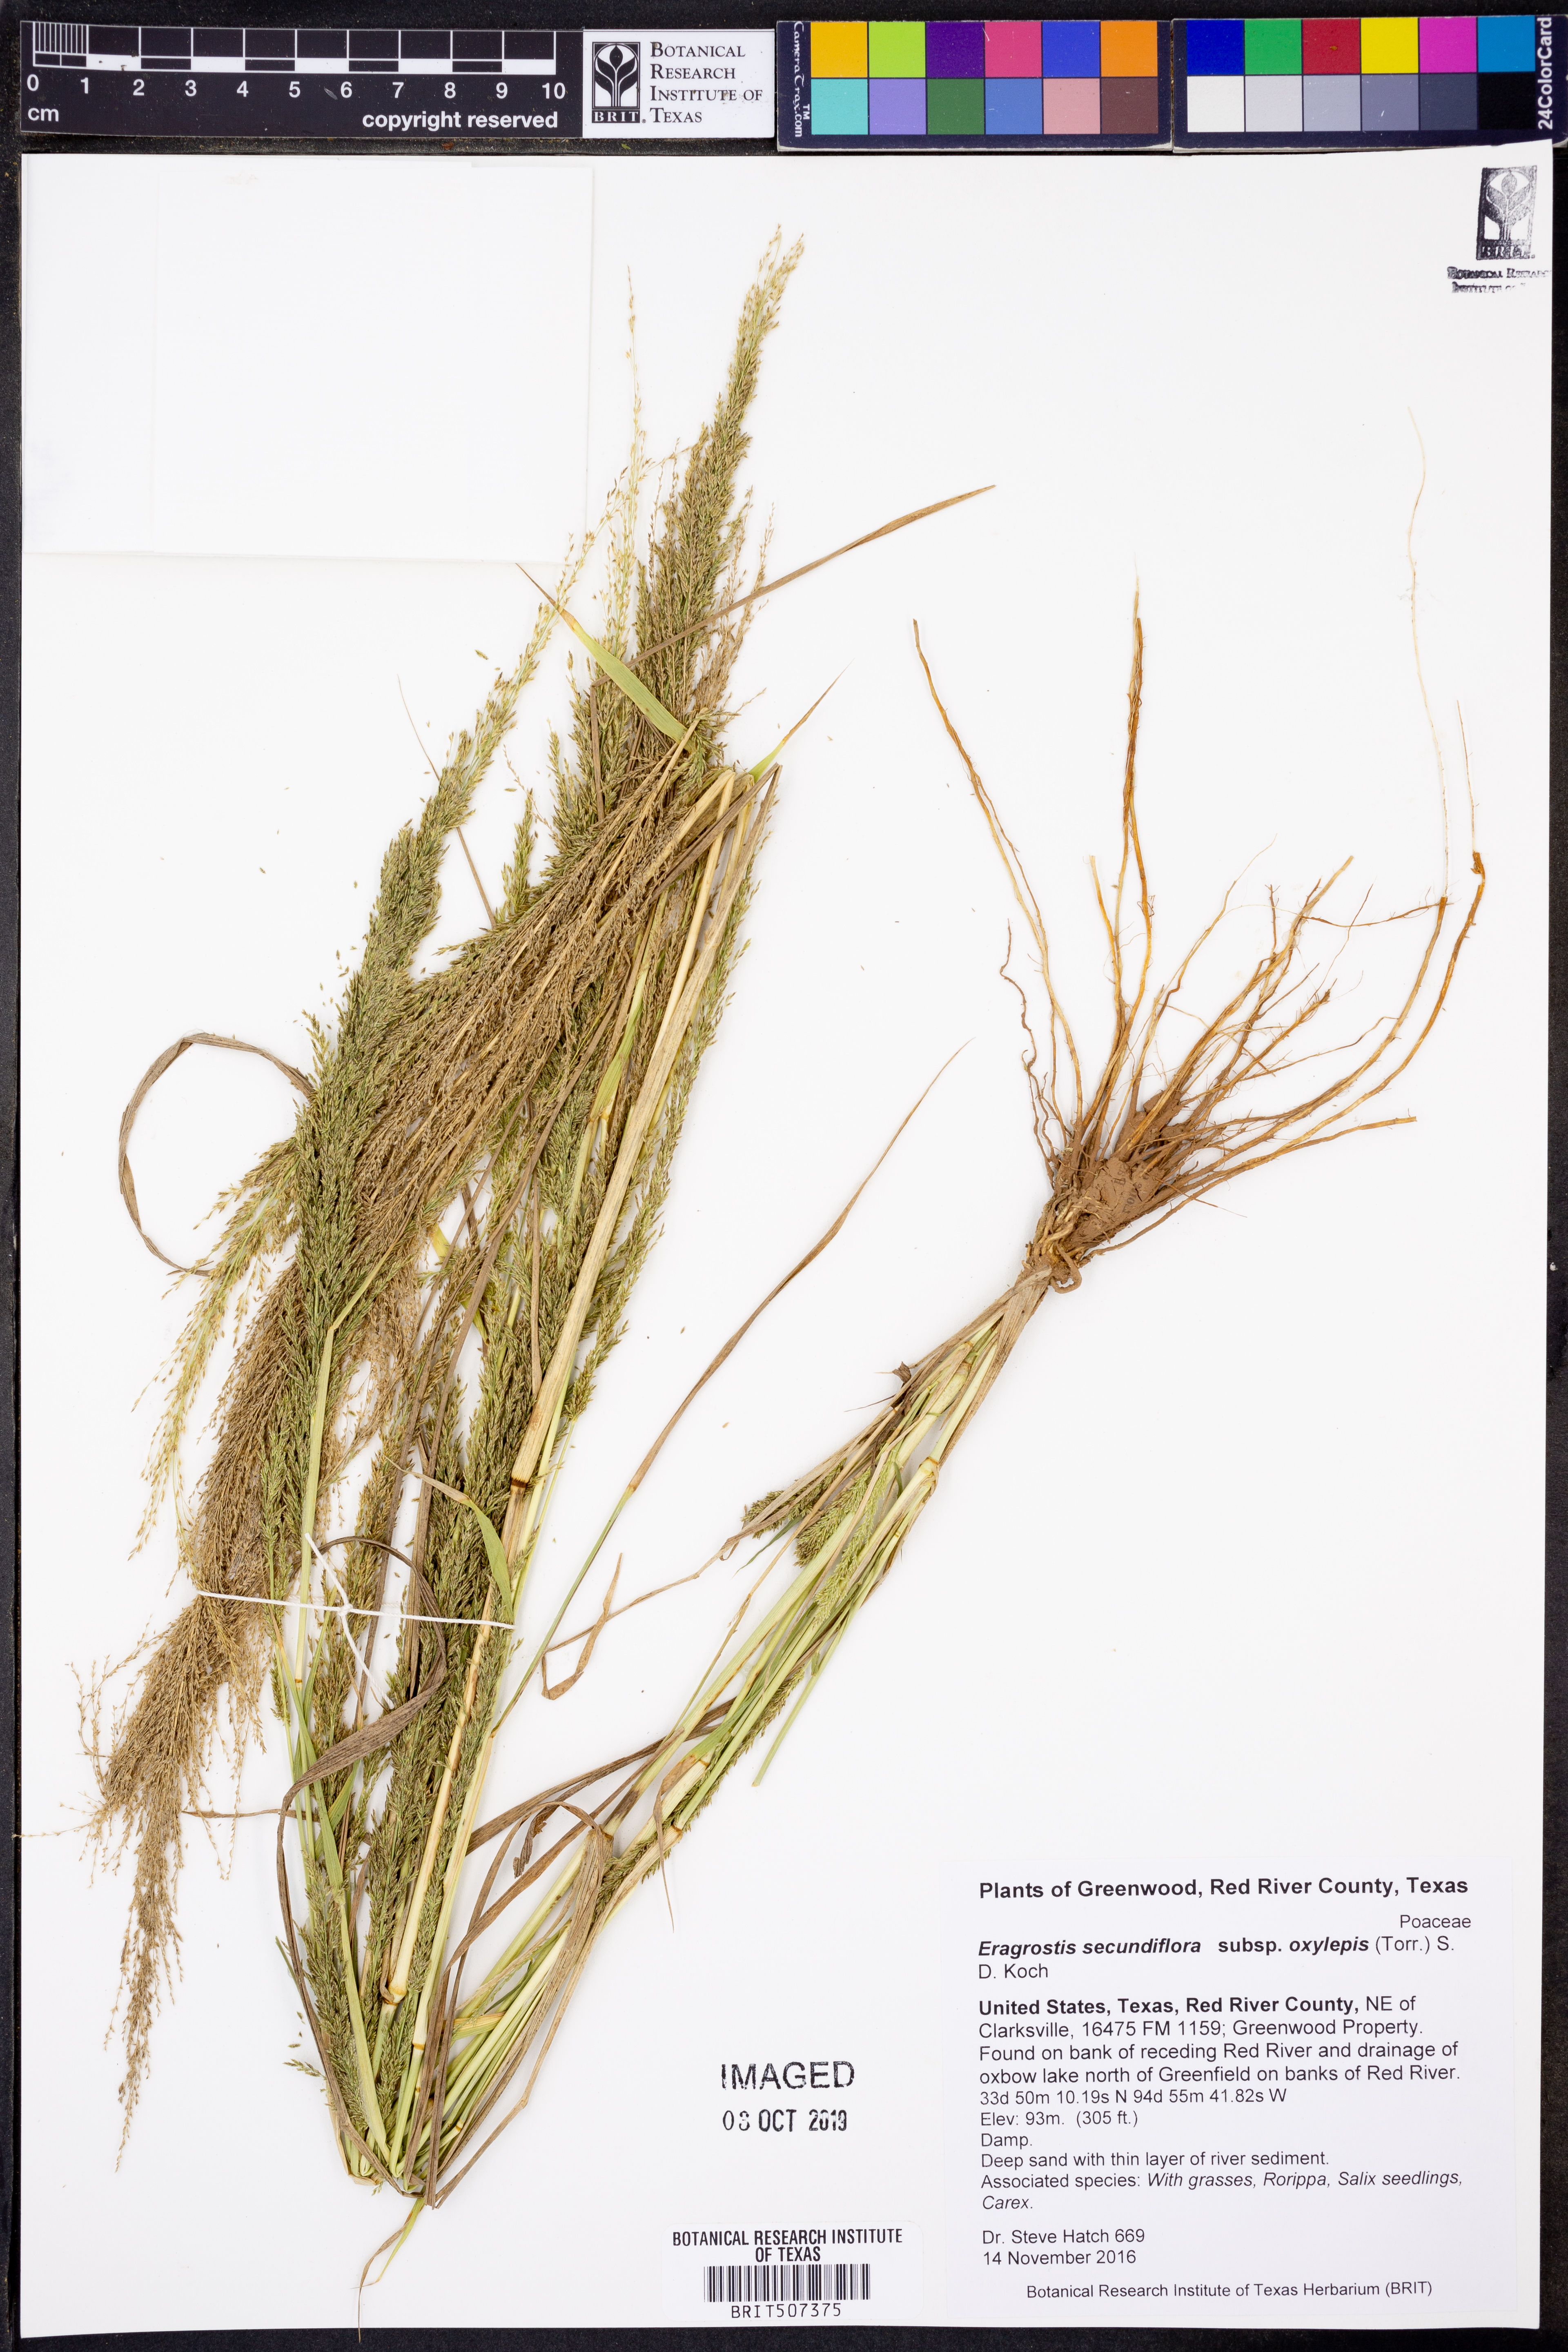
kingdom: Plantae
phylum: Tracheophyta
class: Liliopsida
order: Poales
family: Poaceae
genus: Eragrostis
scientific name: Eragrostis secundiflora
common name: Red love grass
